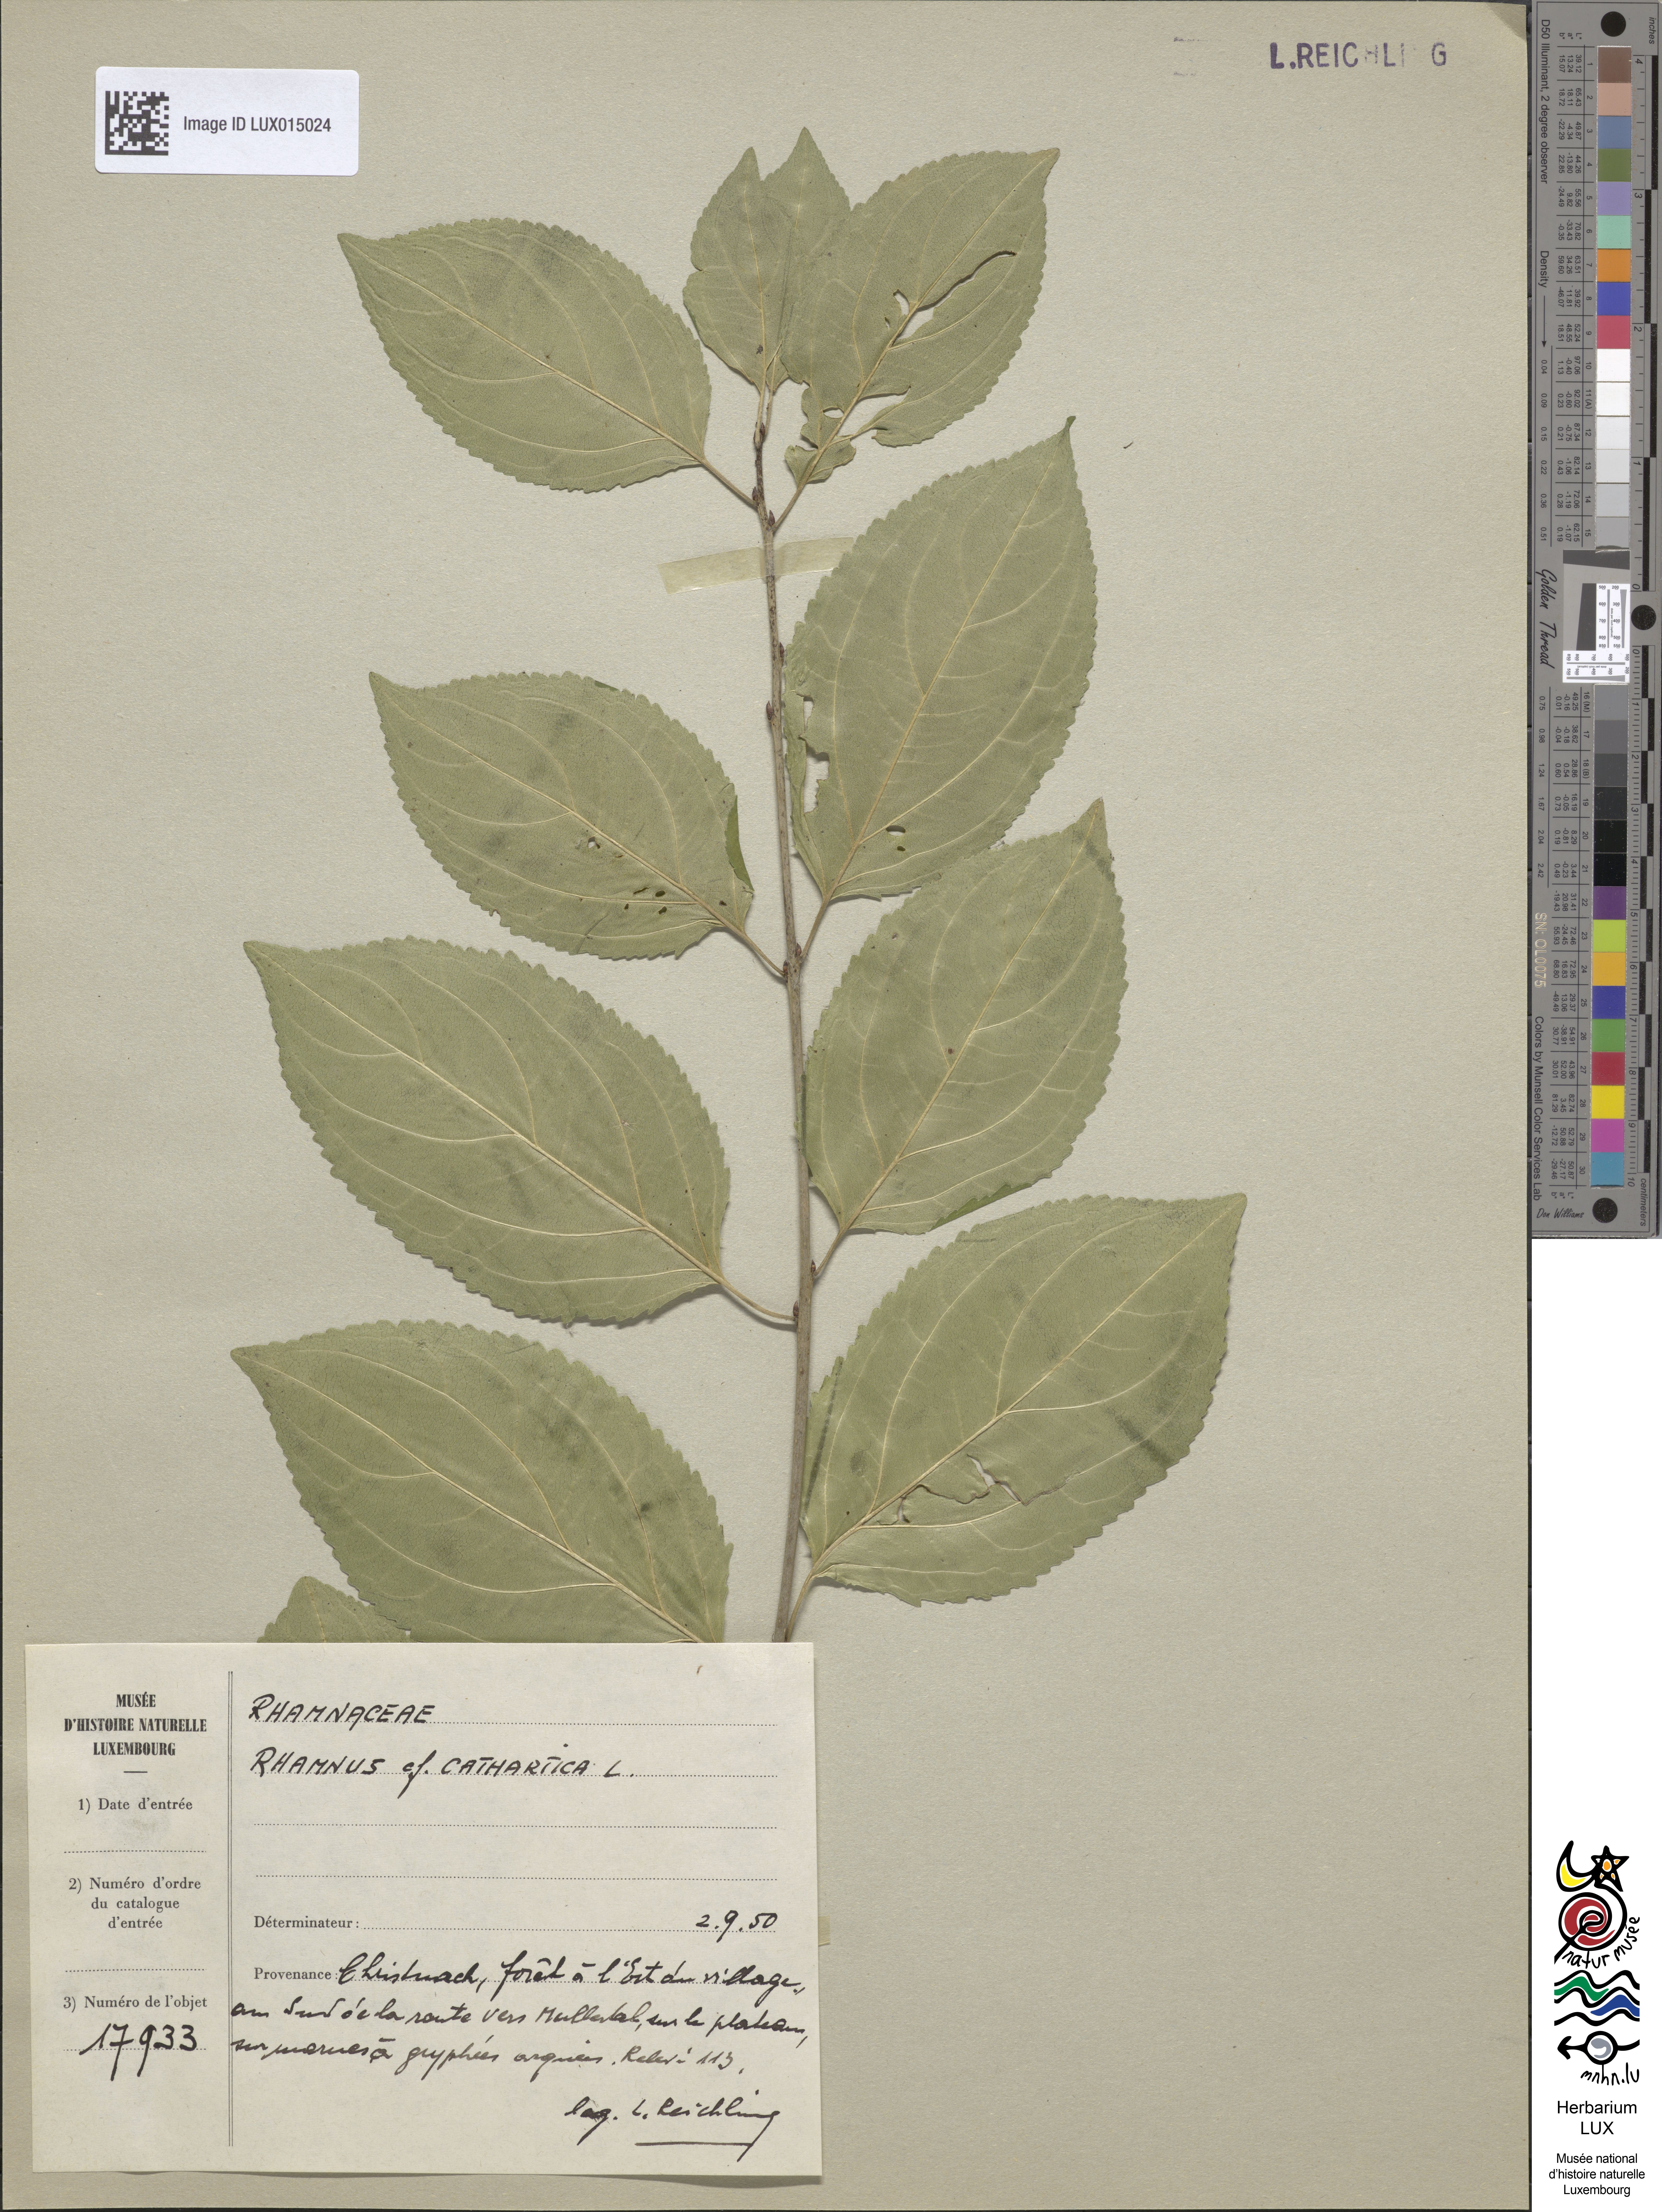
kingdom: Plantae
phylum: Tracheophyta
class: Magnoliopsida
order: Rosales
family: Rhamnaceae
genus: Rhamnus
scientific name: Rhamnus
